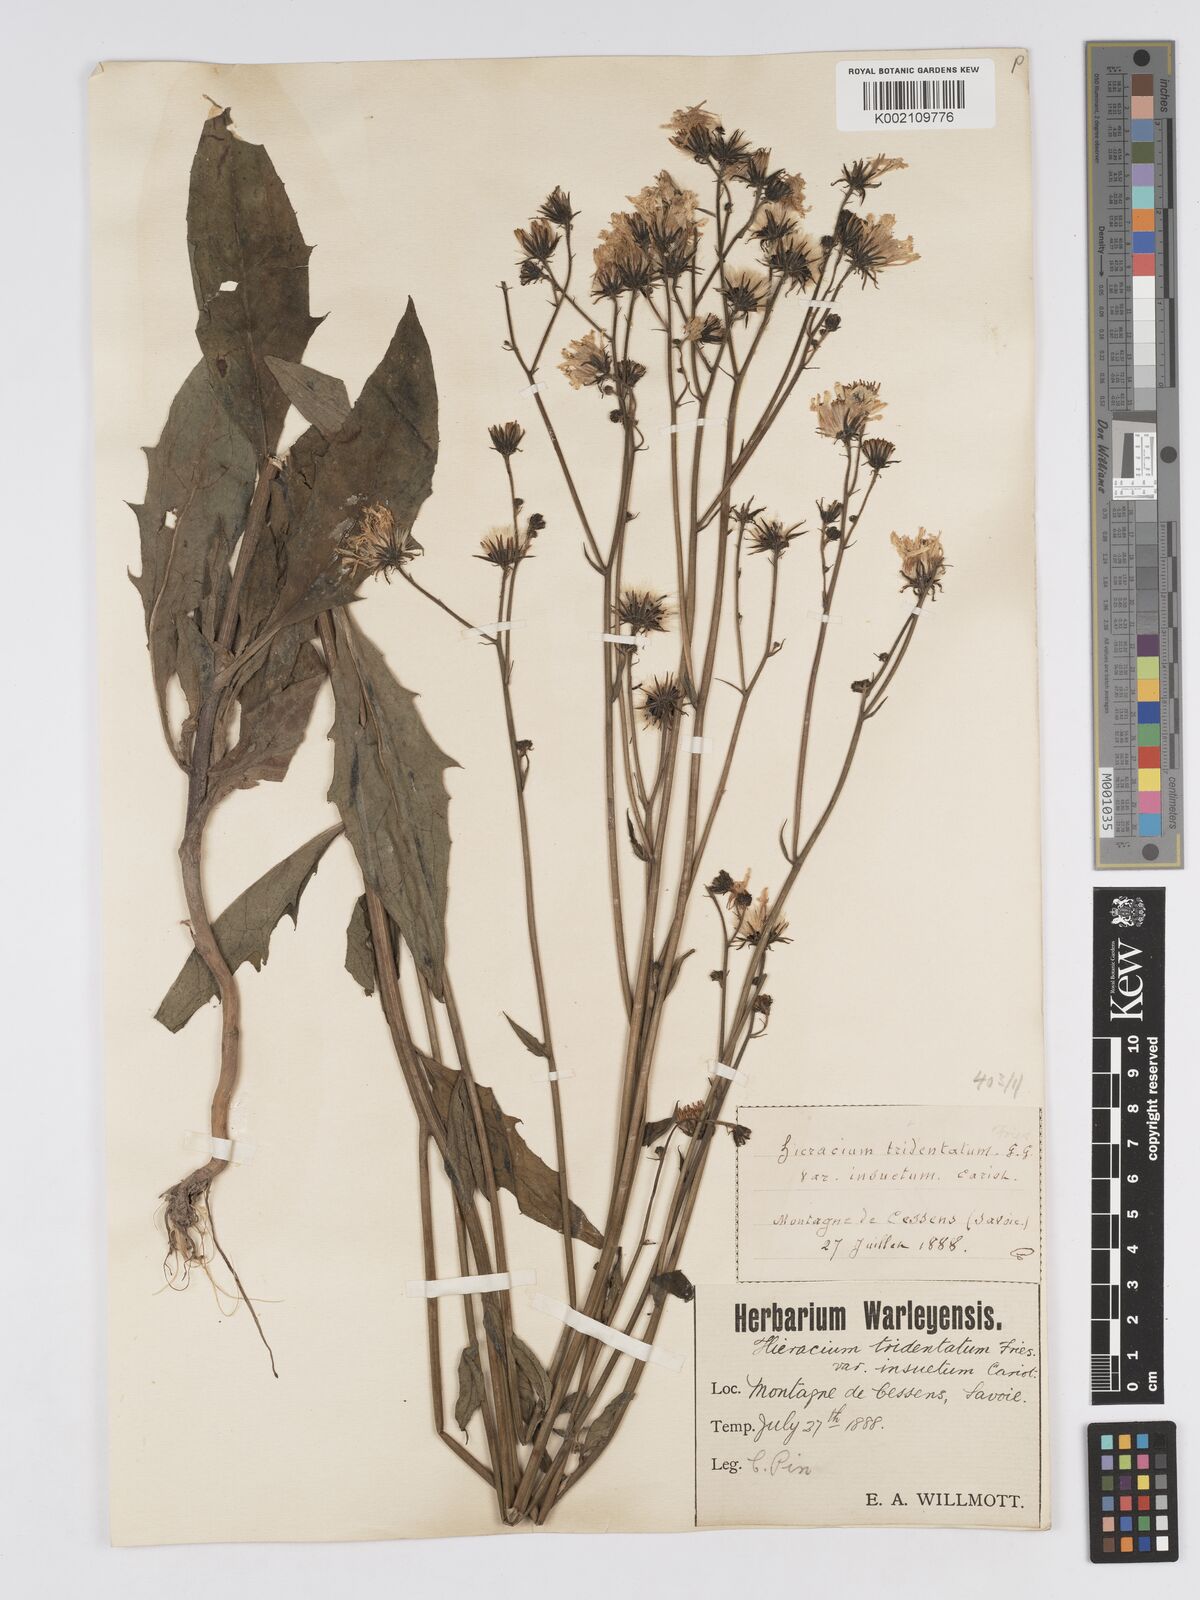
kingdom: Plantae
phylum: Tracheophyta
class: Magnoliopsida
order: Asterales
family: Asteraceae
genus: Hieracium
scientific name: Hieracium australe
